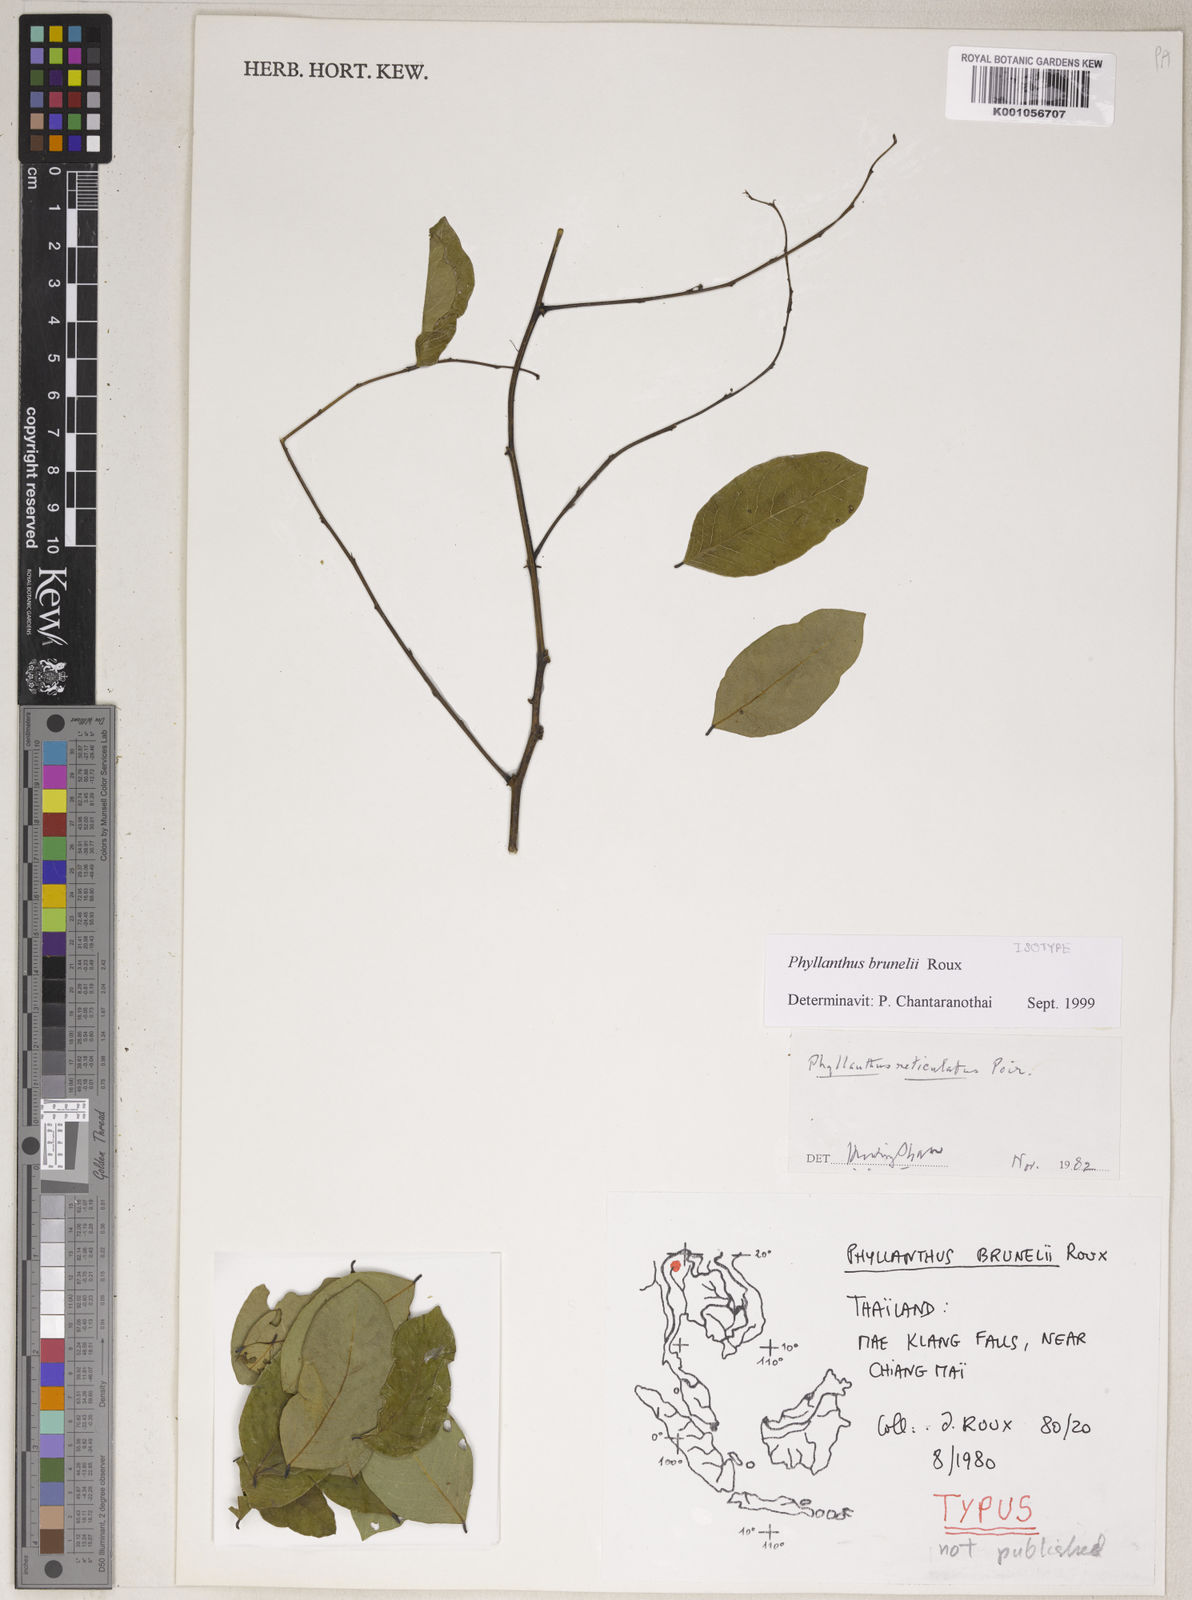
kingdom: Plantae
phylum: Tracheophyta
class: Magnoliopsida
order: Malpighiales
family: Phyllanthaceae
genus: Phyllanthus
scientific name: Phyllanthus
